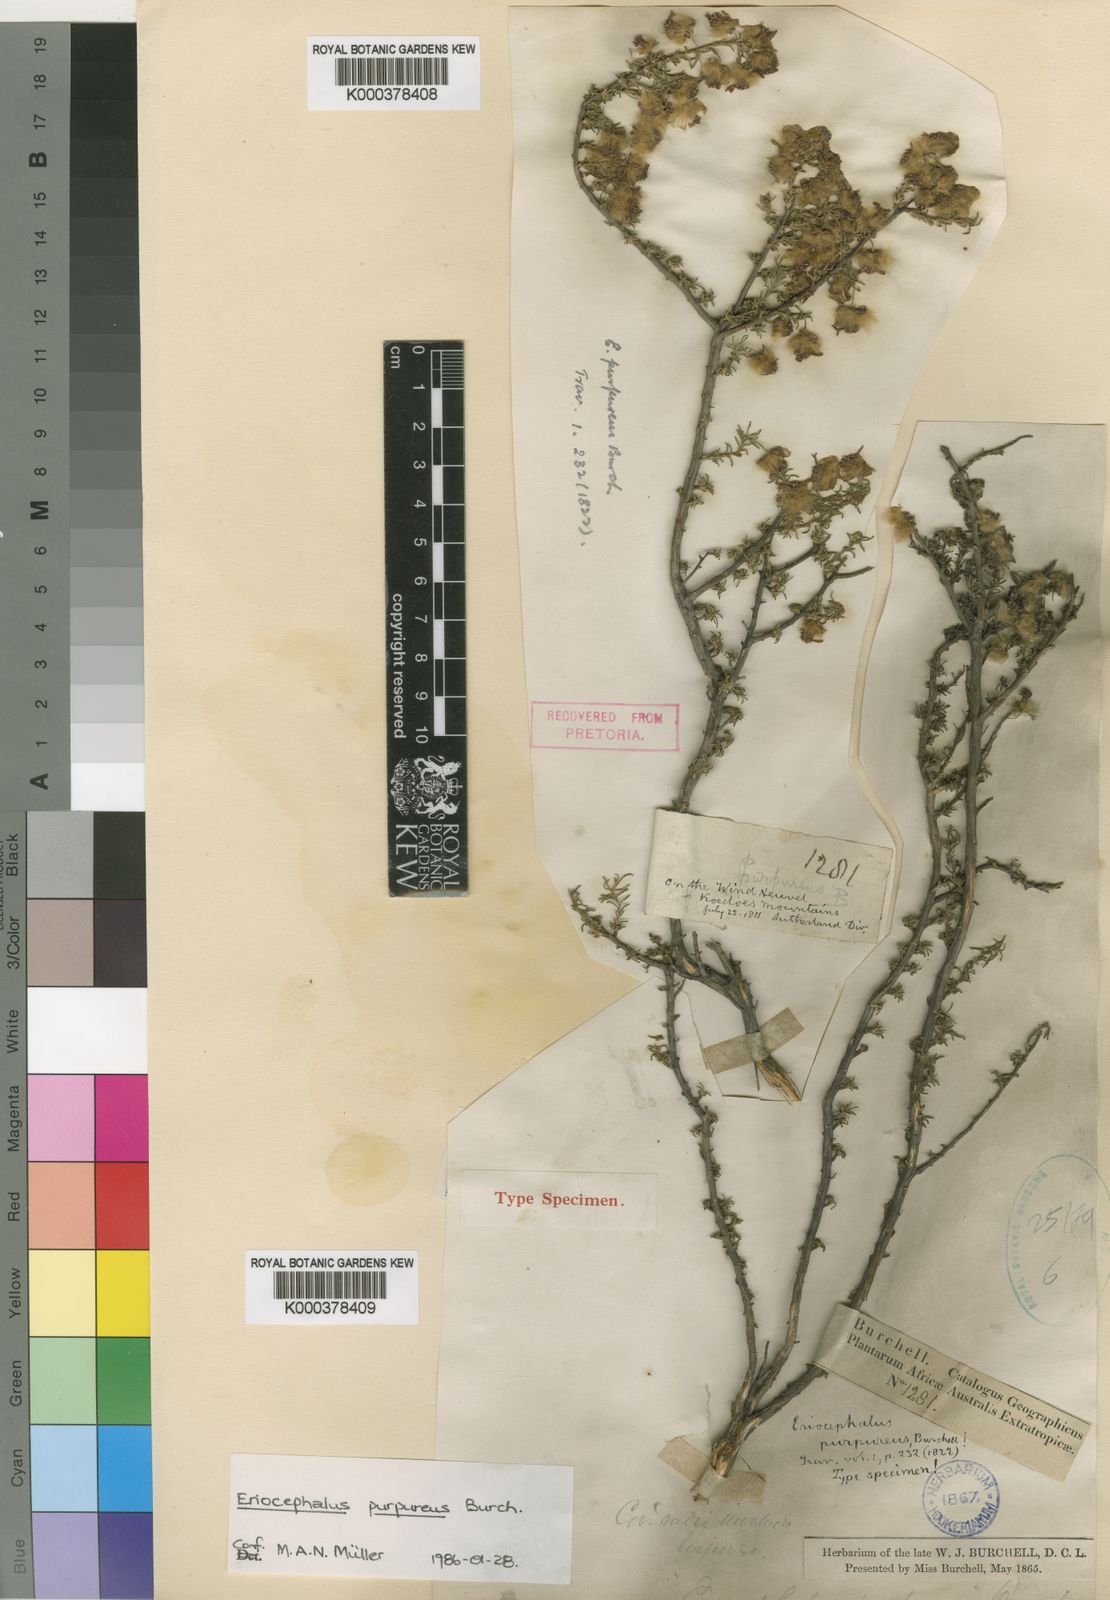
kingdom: Plantae
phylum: Tracheophyta
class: Magnoliopsida
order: Asterales
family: Asteraceae
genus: Eriocephalus
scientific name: Eriocephalus ericoides
